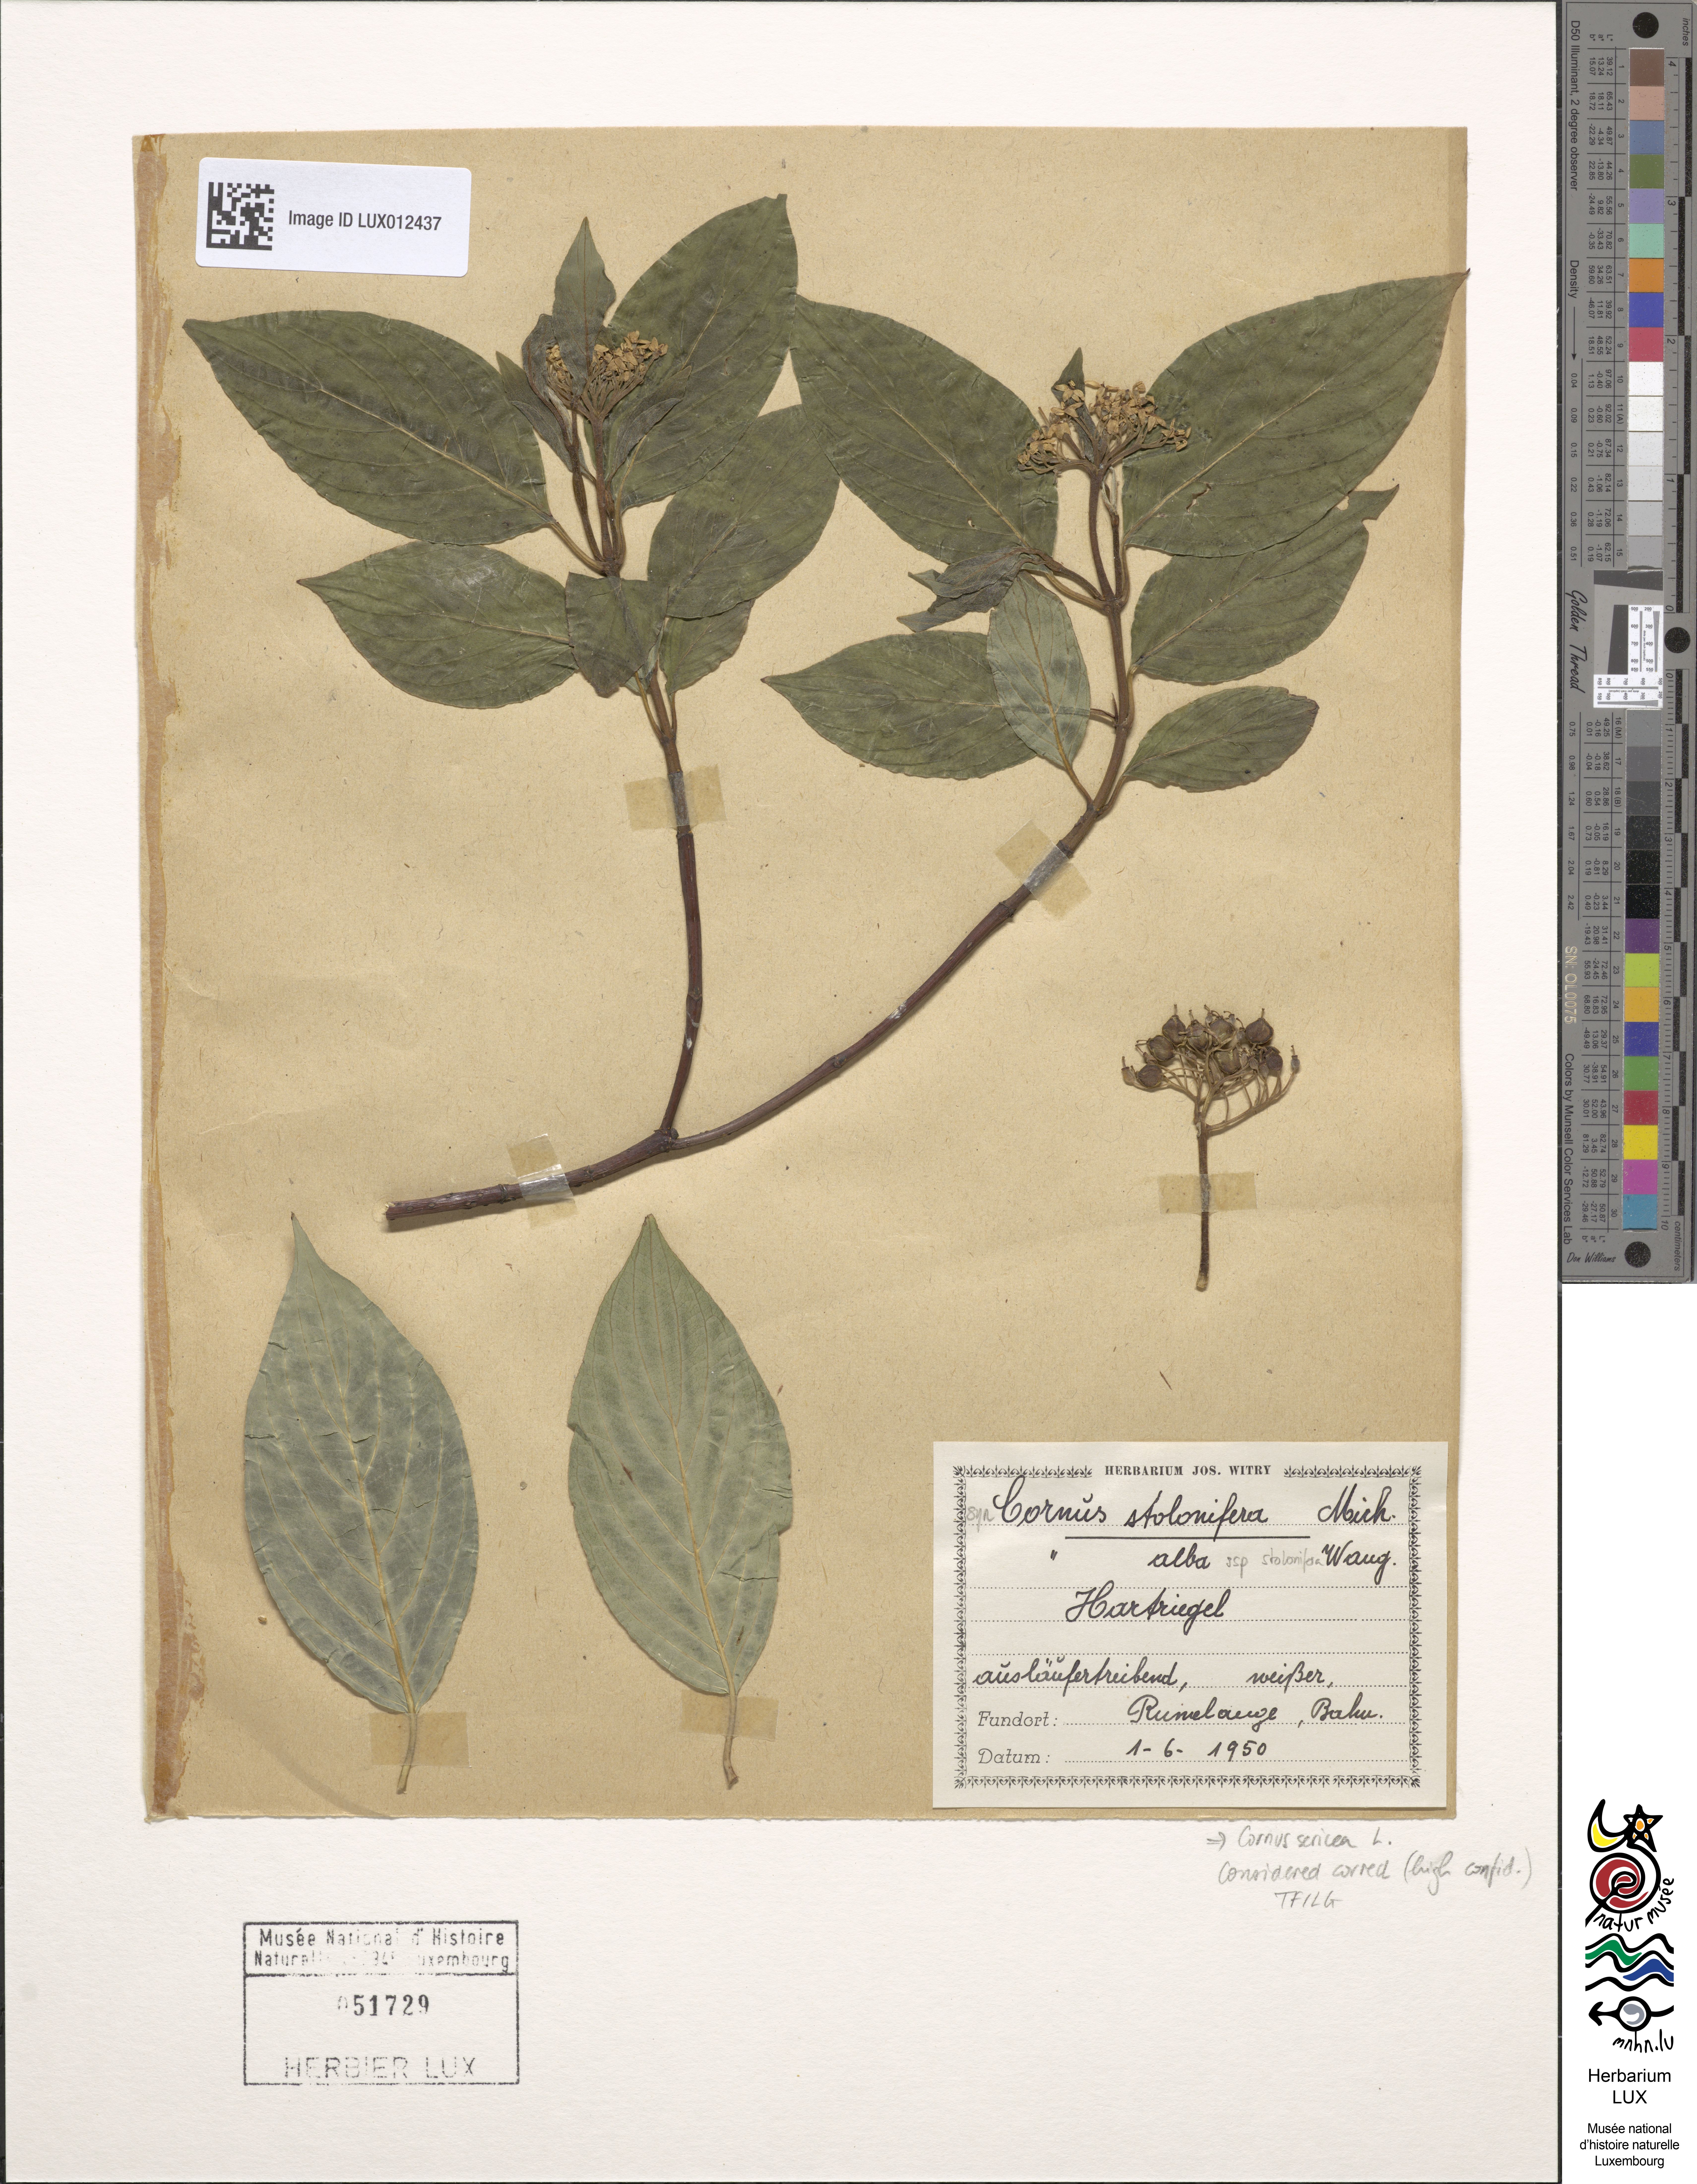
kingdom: Plantae
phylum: Tracheophyta
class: Magnoliopsida
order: Cornales
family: Cornaceae
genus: Cornus
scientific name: Cornus sericea
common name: Red-osier dogwood
